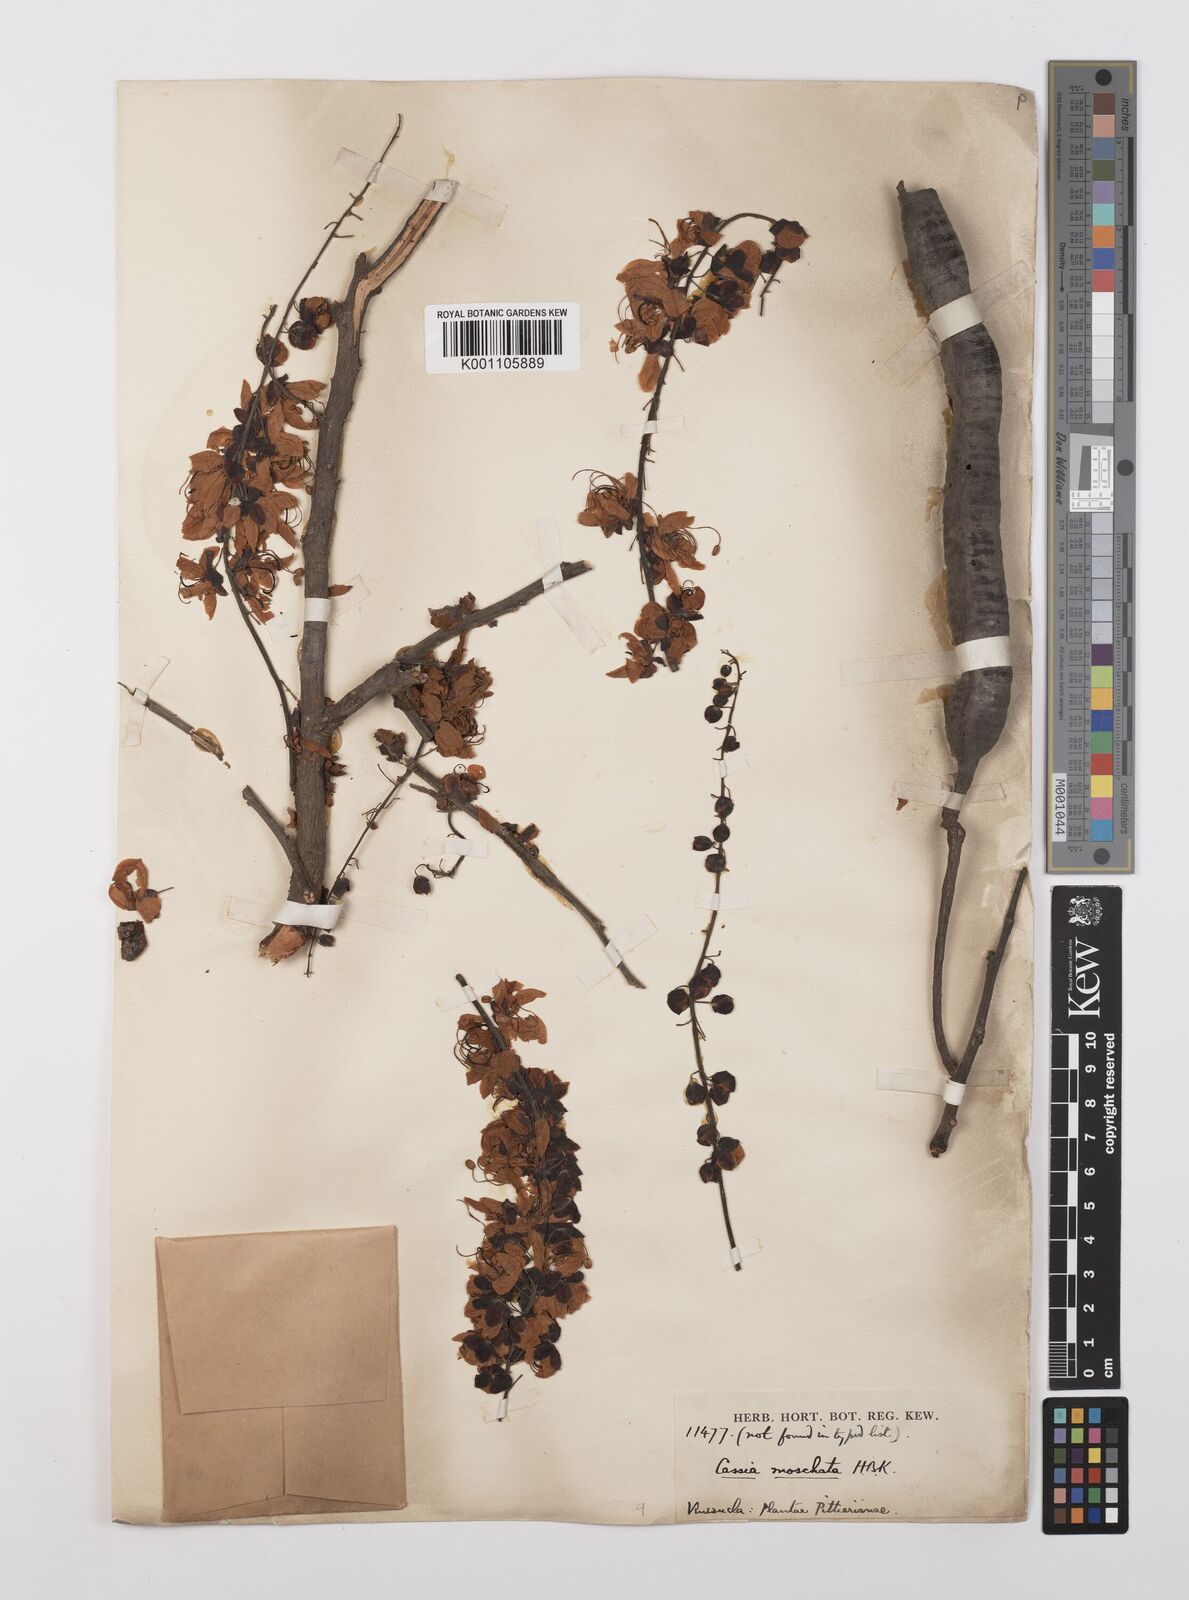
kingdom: Plantae
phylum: Tracheophyta
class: Magnoliopsida
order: Fabales
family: Fabaceae
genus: Cassia
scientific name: Cassia moschata
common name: Bronze shower tree
